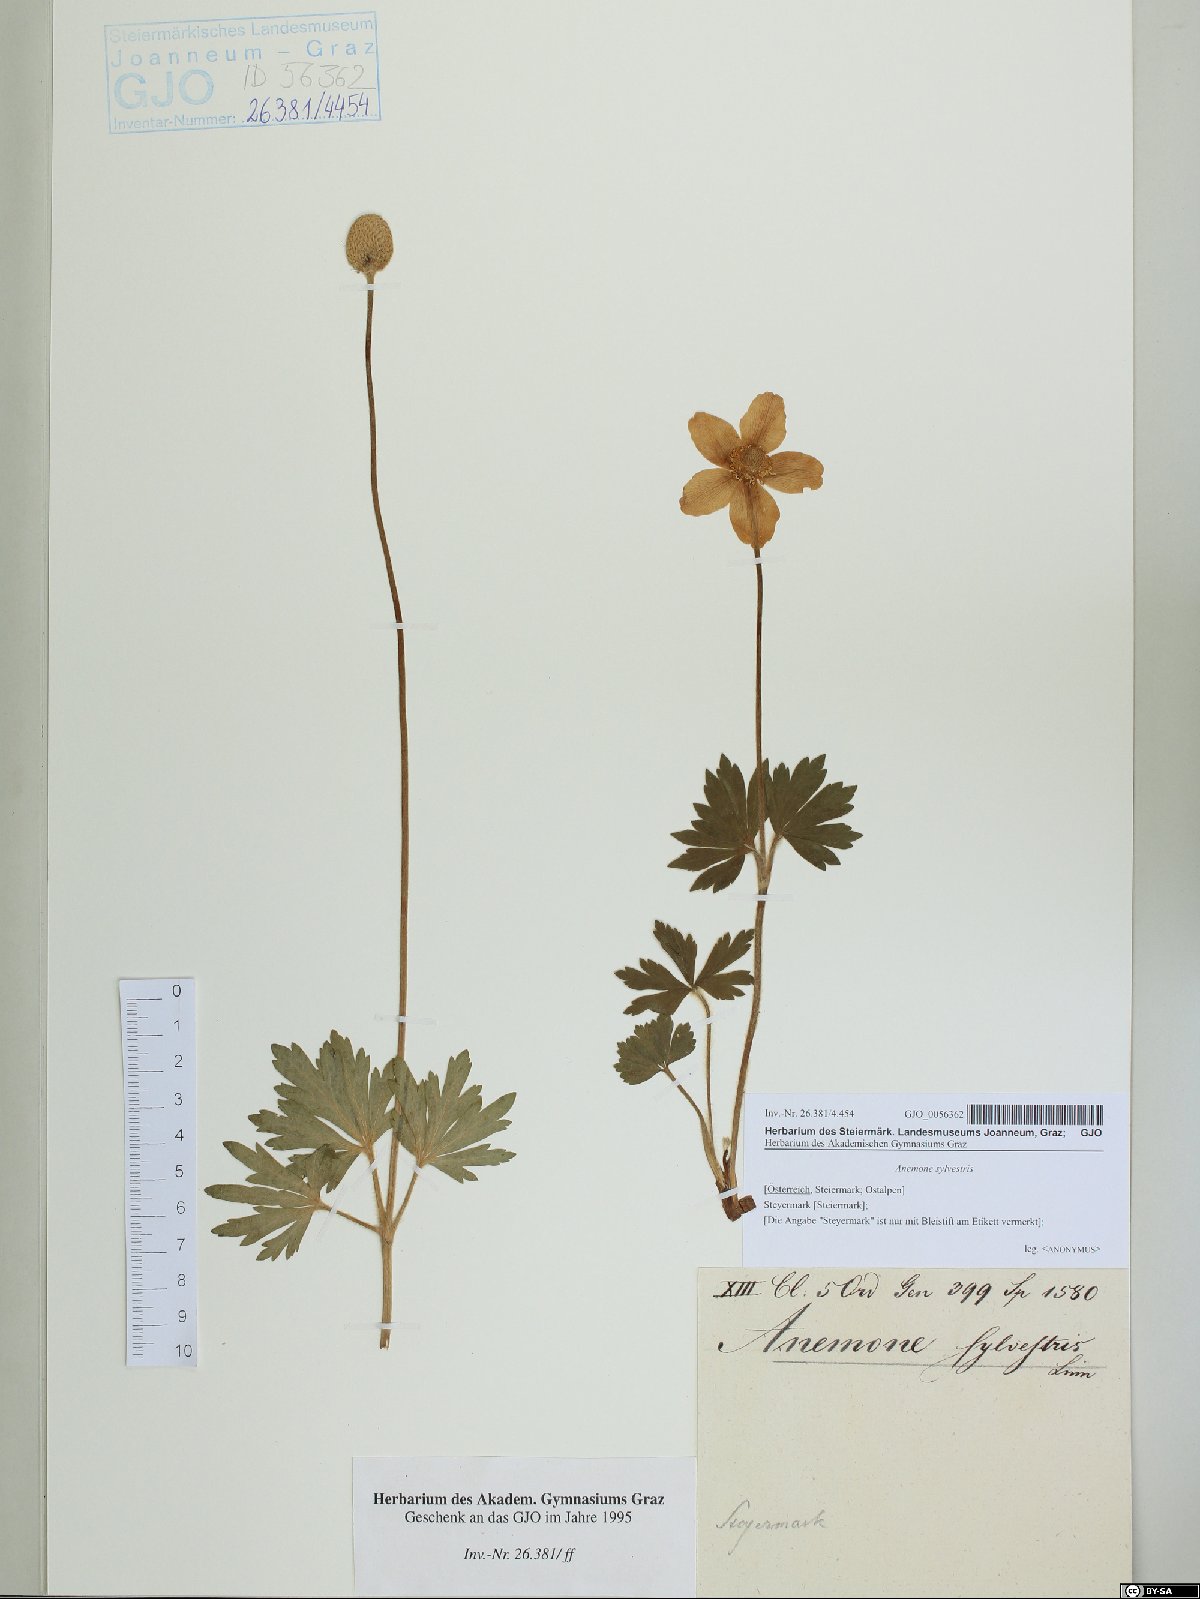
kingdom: Plantae
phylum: Tracheophyta
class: Magnoliopsida
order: Ranunculales
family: Ranunculaceae
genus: Anemone
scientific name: Anemone sylvestris
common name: Snowdrop anemone
